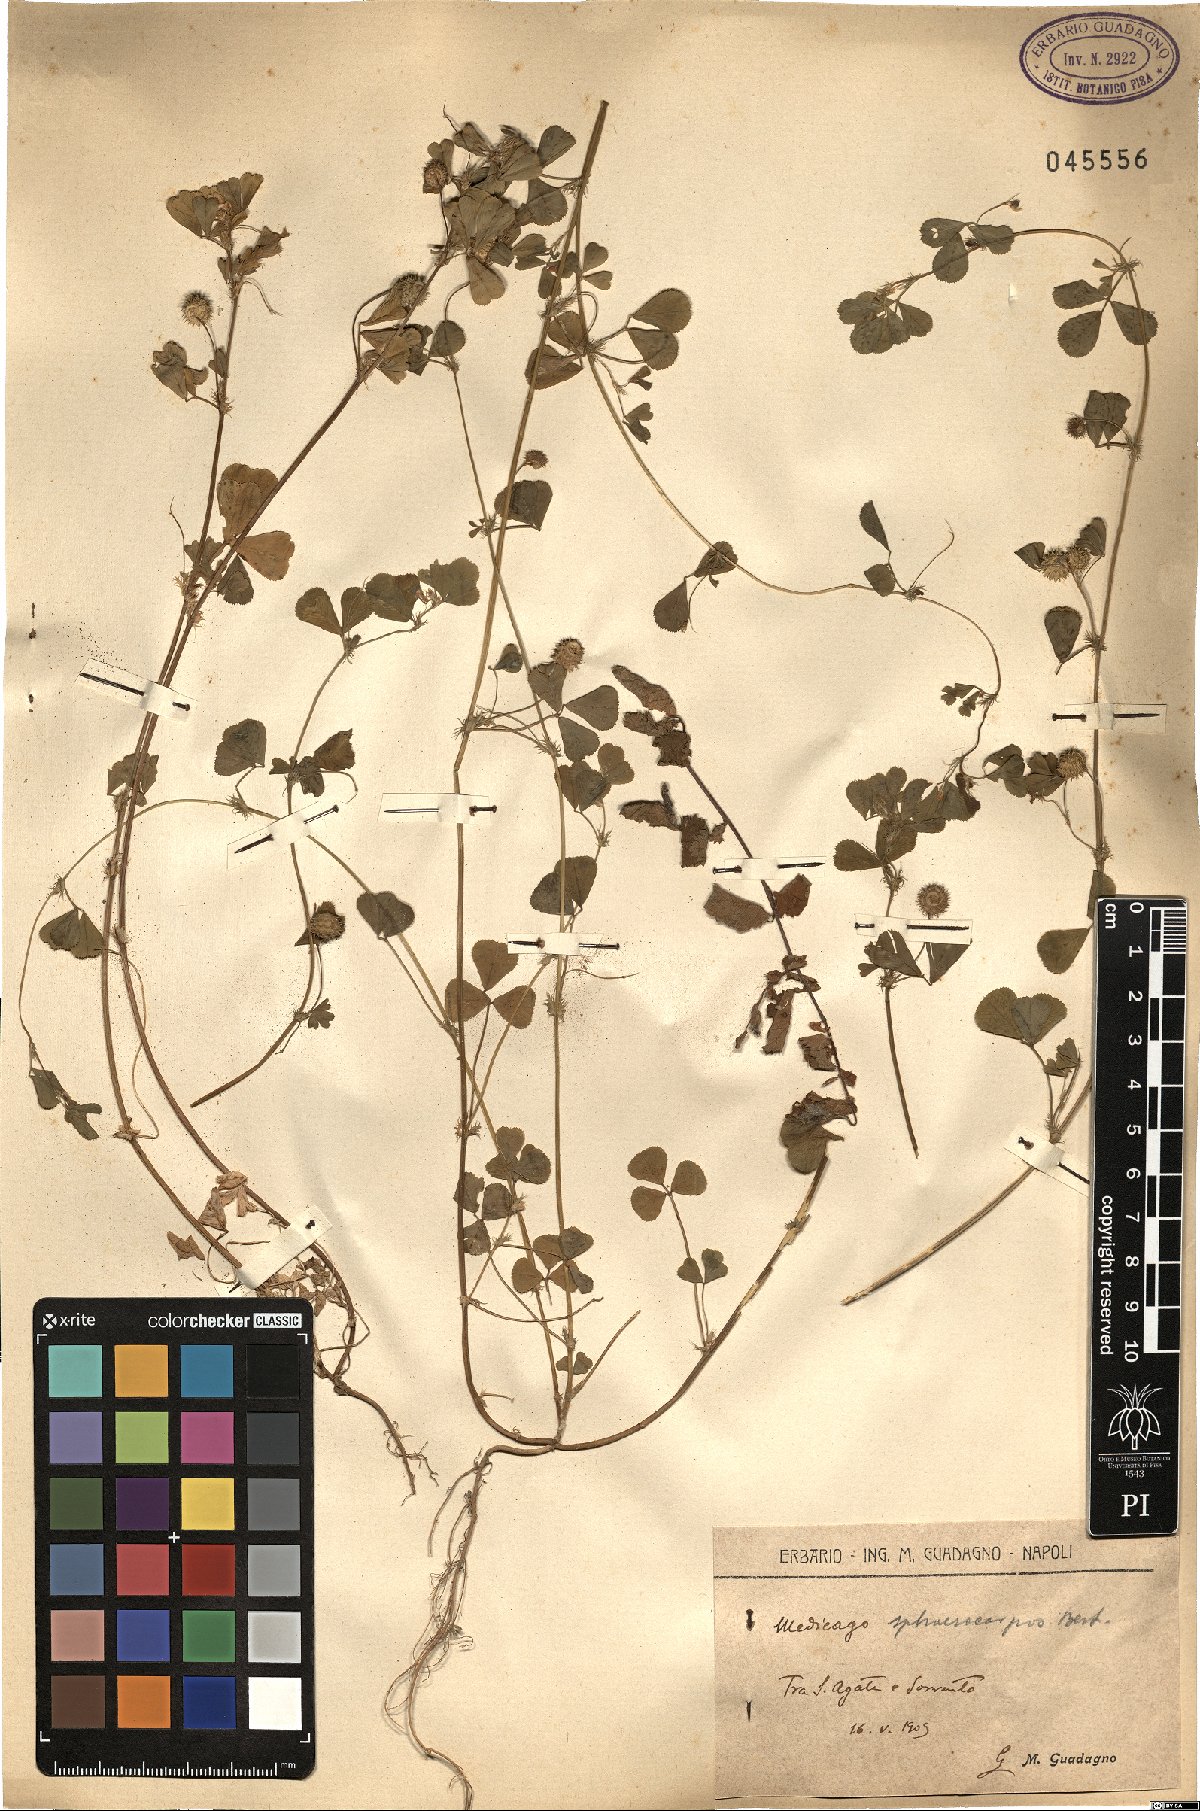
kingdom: Plantae
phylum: Tracheophyta
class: Magnoliopsida
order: Fabales
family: Fabaceae
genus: Medicago
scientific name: Medicago sphaerocarpos
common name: Sphere medic
